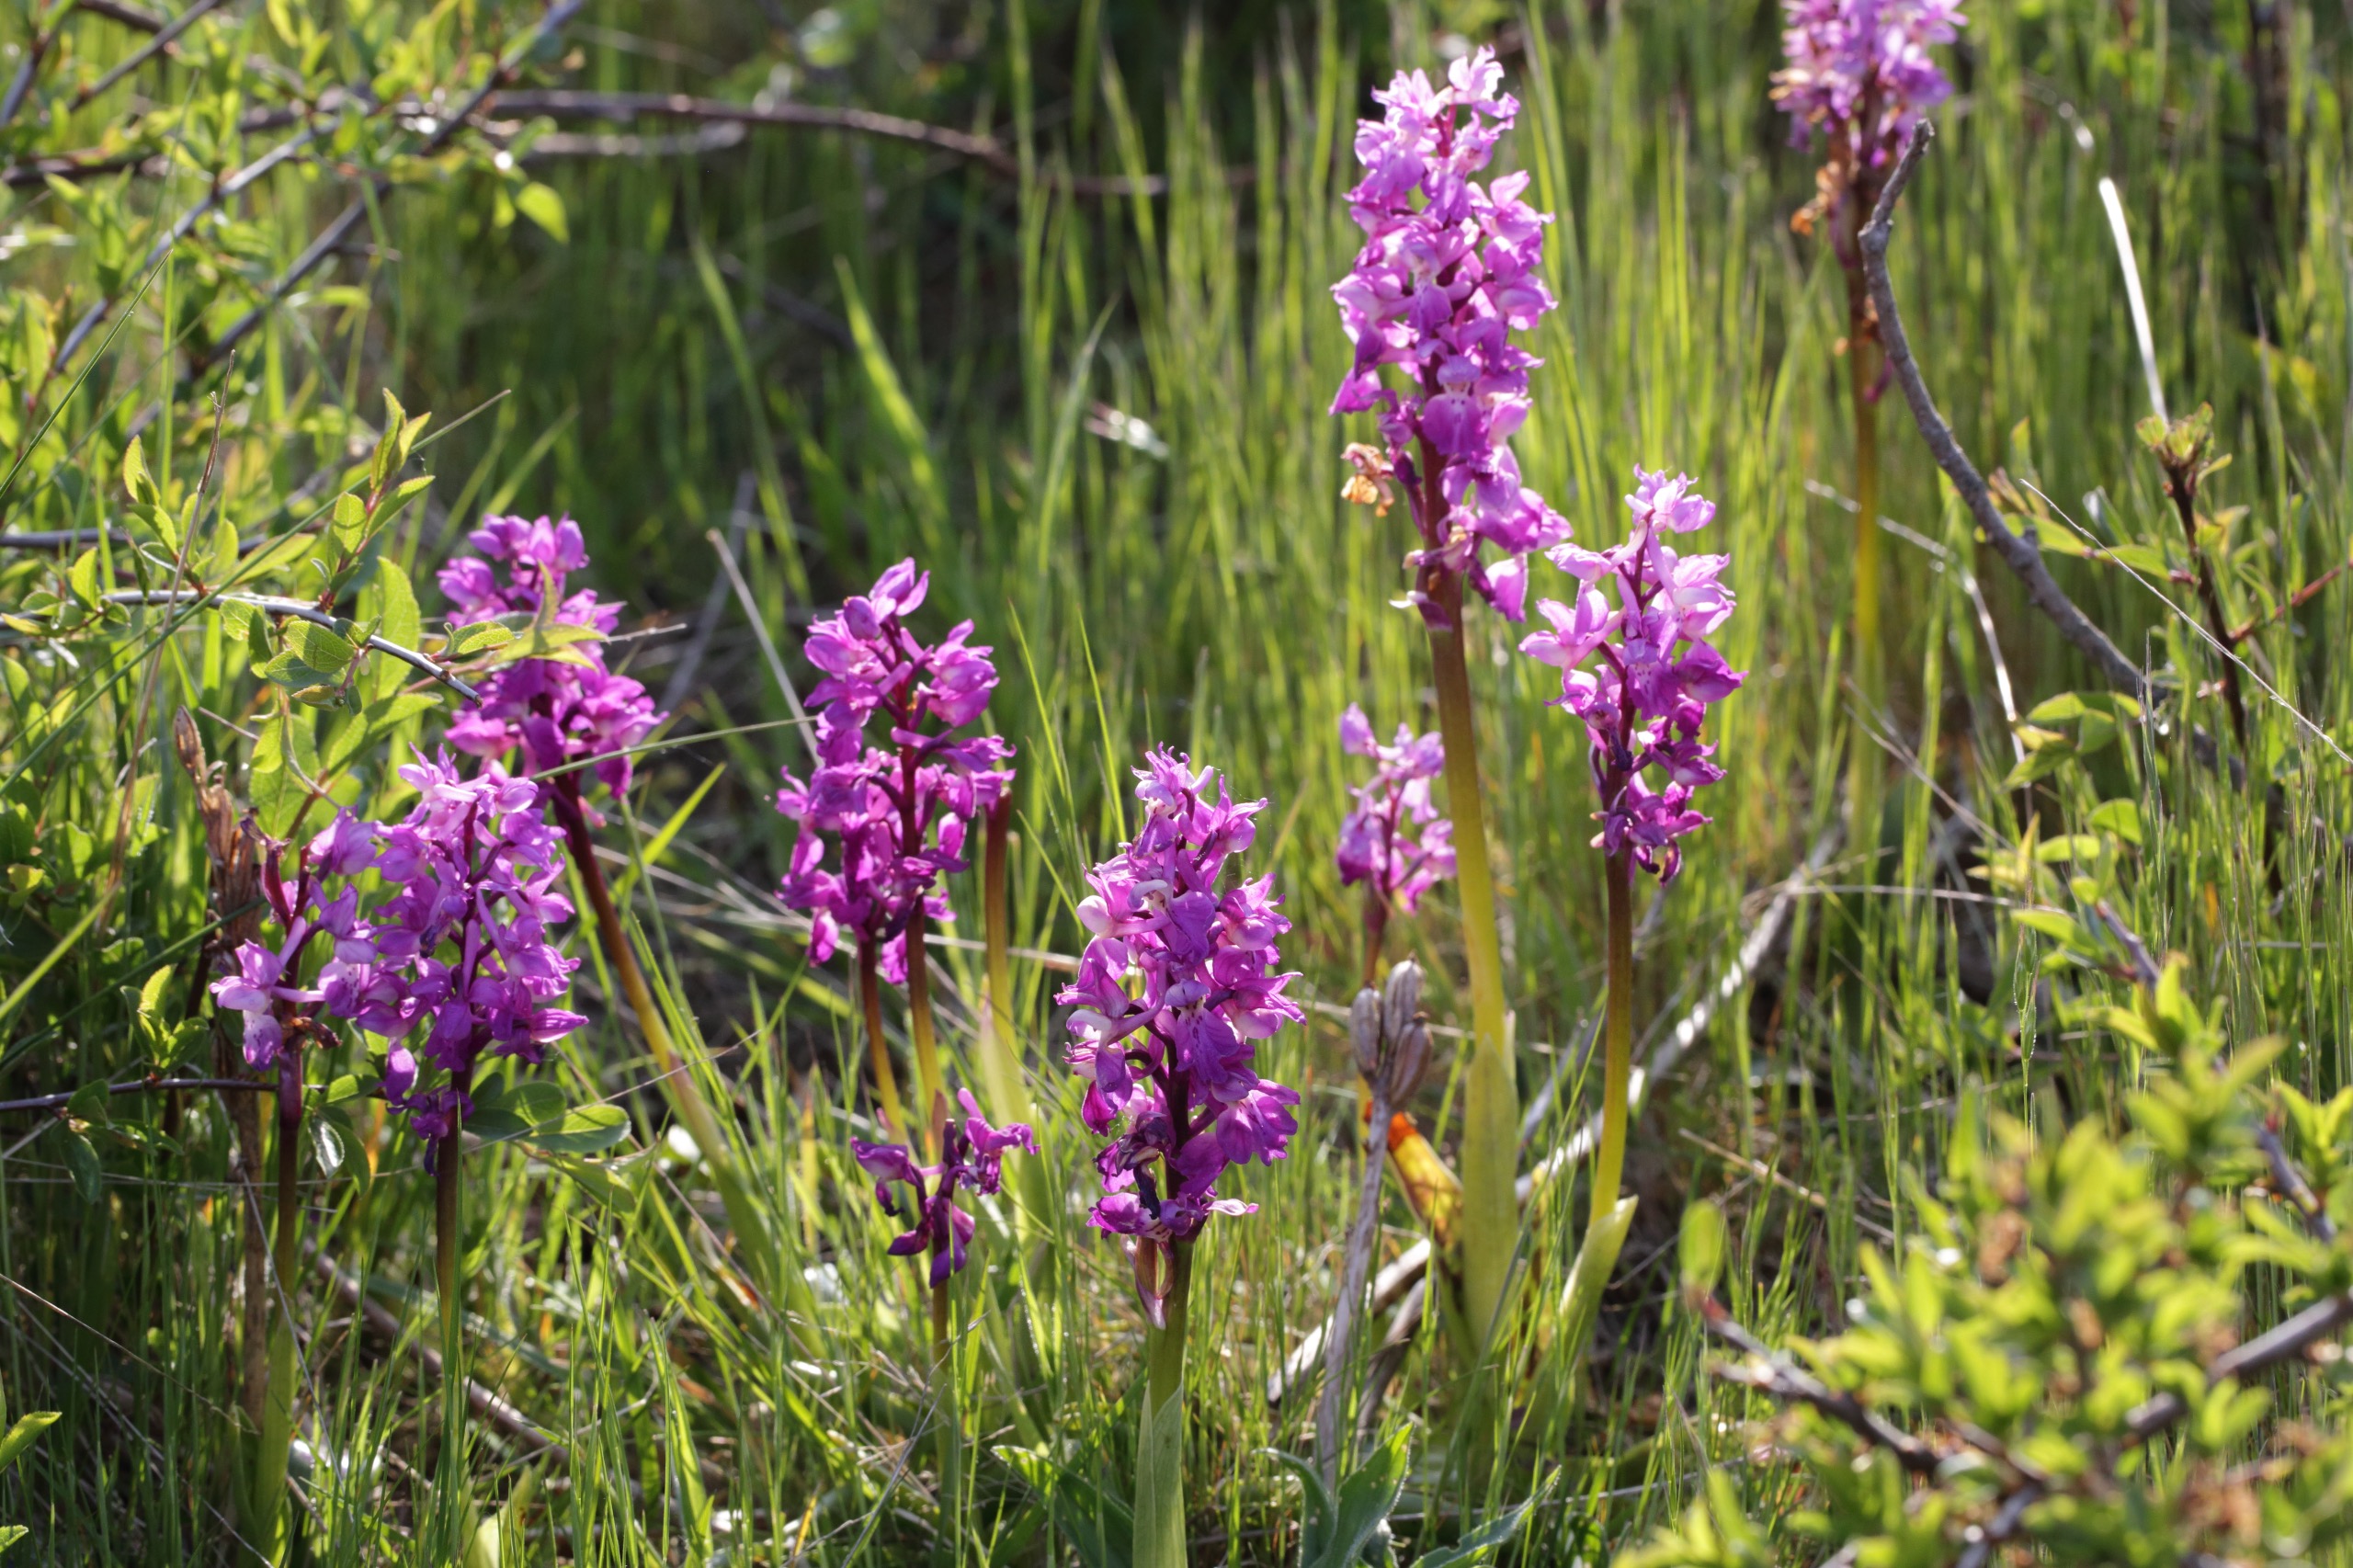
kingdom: Plantae
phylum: Tracheophyta
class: Liliopsida
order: Asparagales
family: Orchidaceae
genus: Orchis
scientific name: Orchis mascula
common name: Tyndakset gøgeurt
